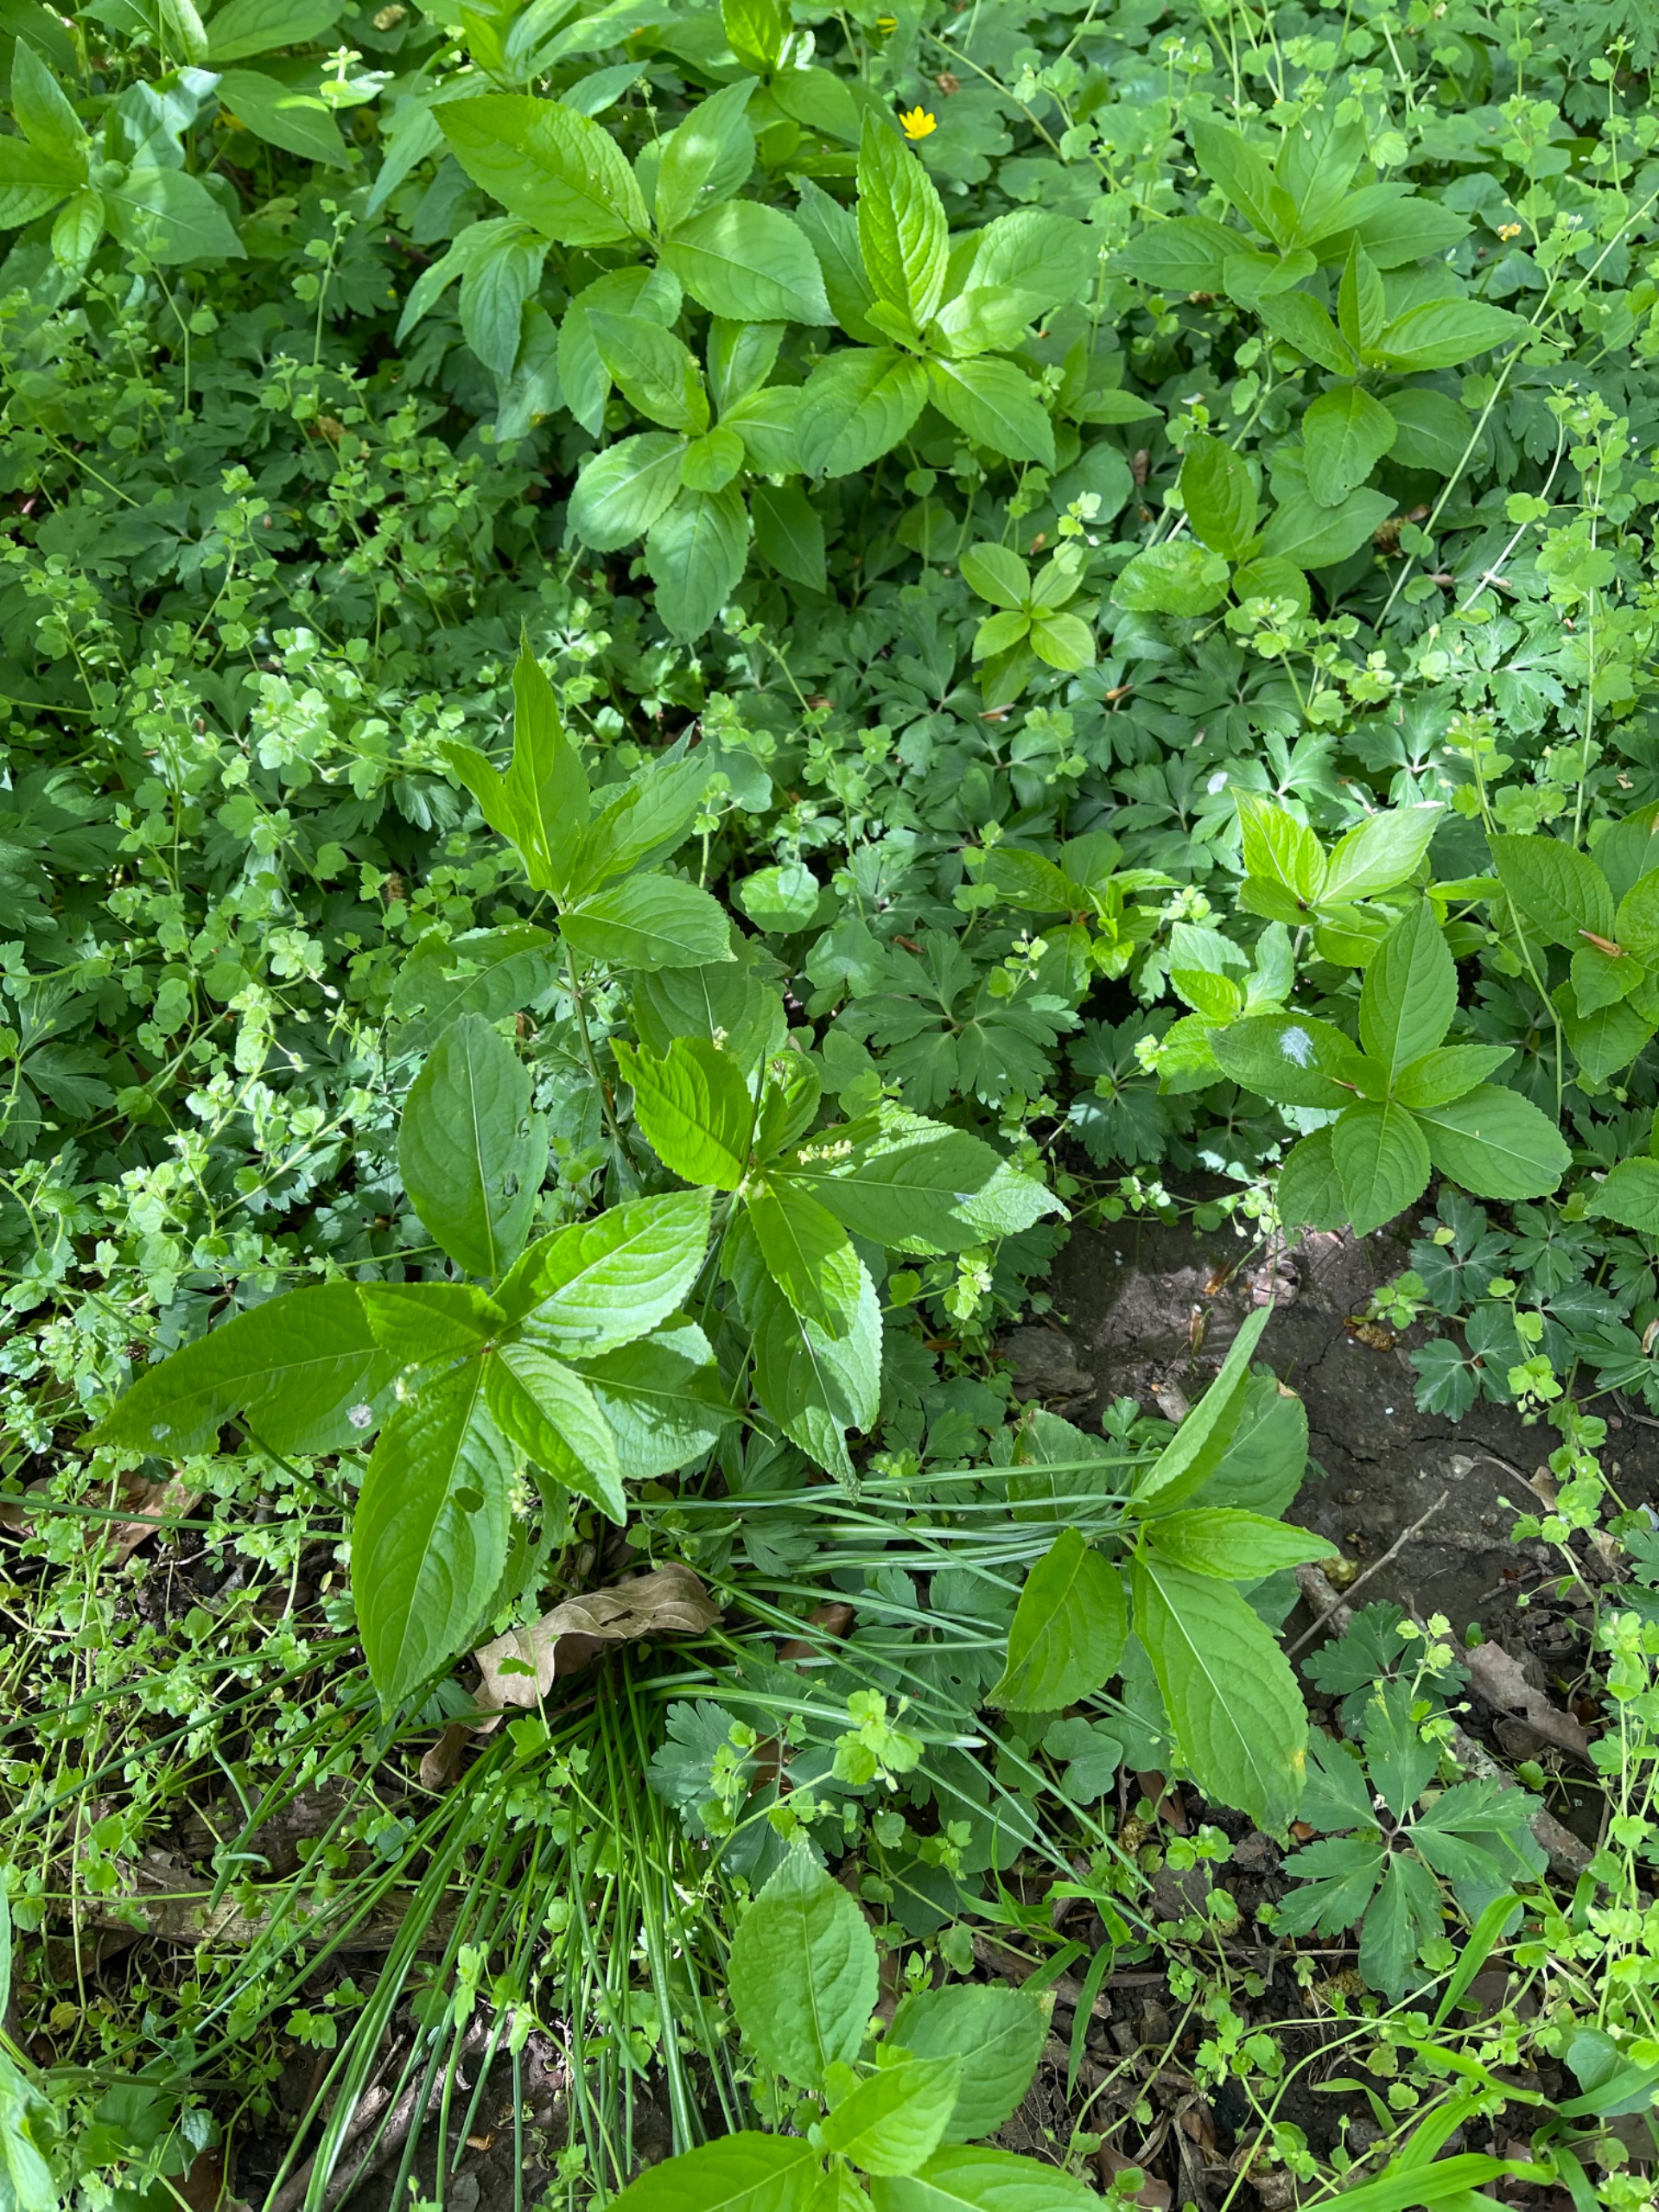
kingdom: Plantae
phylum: Tracheophyta
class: Magnoliopsida
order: Malpighiales
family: Euphorbiaceae
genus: Mercurialis
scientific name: Mercurialis perennis
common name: Almindelig bingelurt
